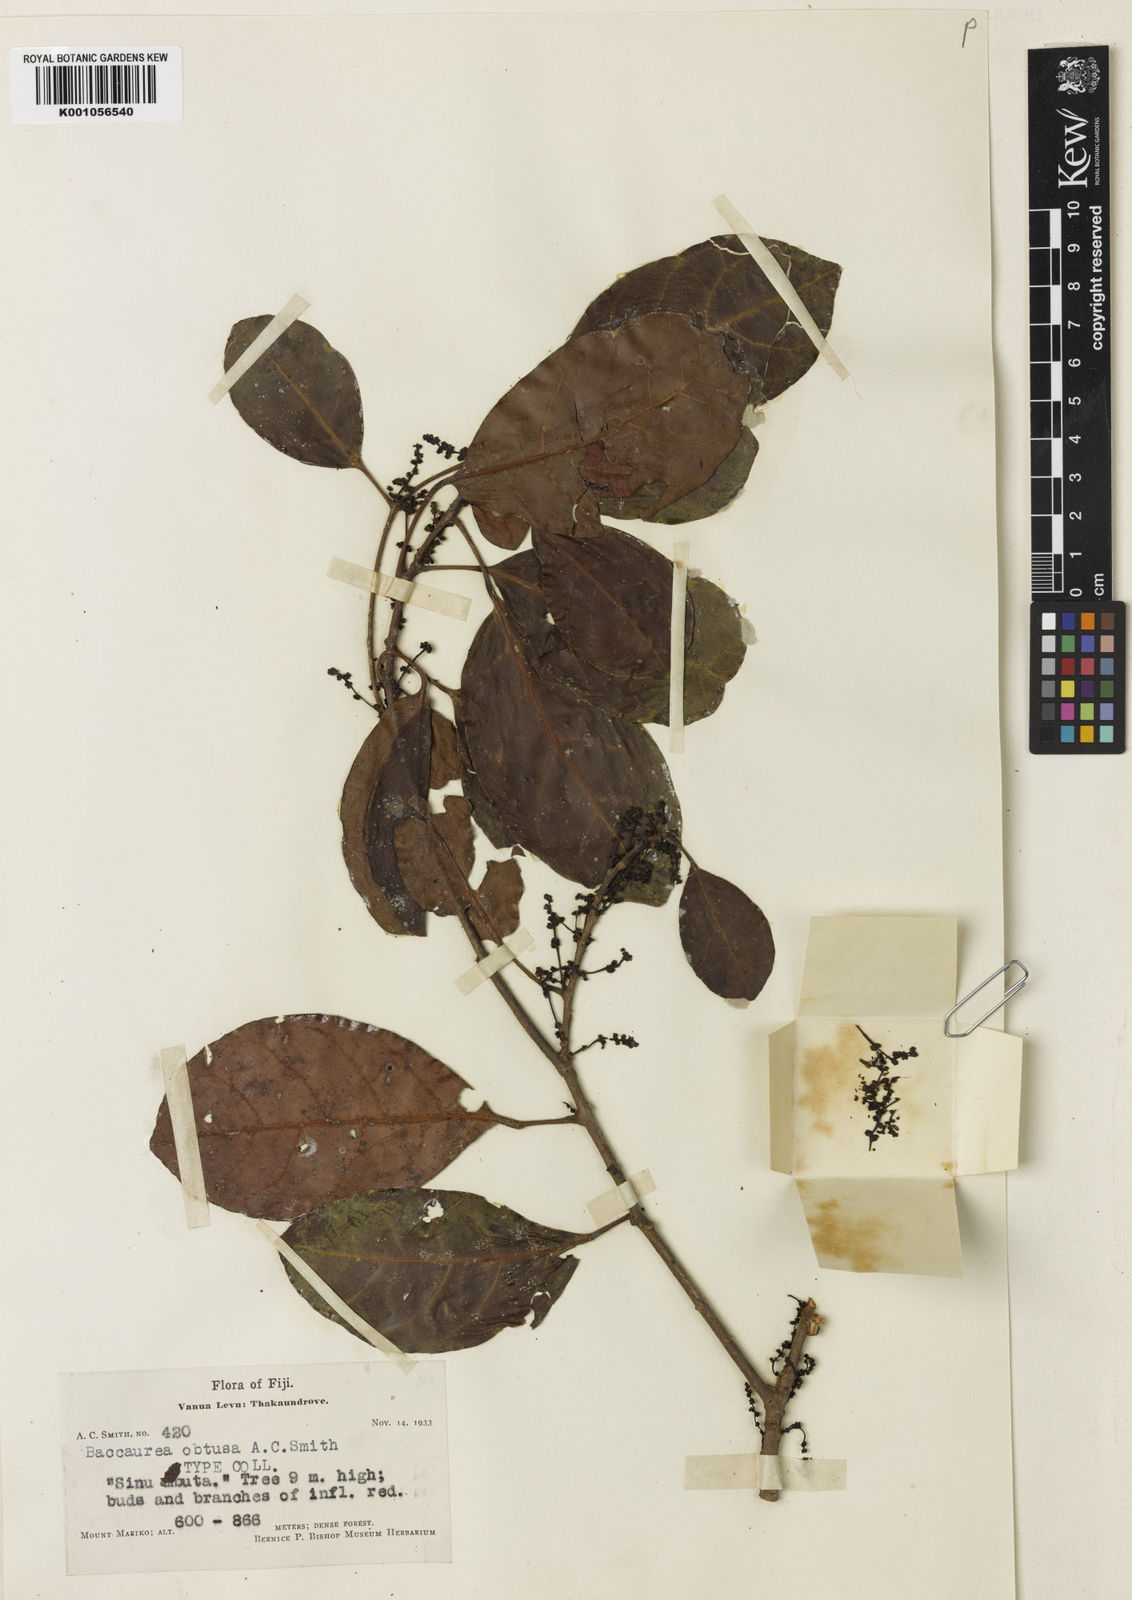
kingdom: Plantae
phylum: Tracheophyta
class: Magnoliopsida
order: Malpighiales
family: Phyllanthaceae
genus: Nothobaccaurea
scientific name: Nothobaccaurea
